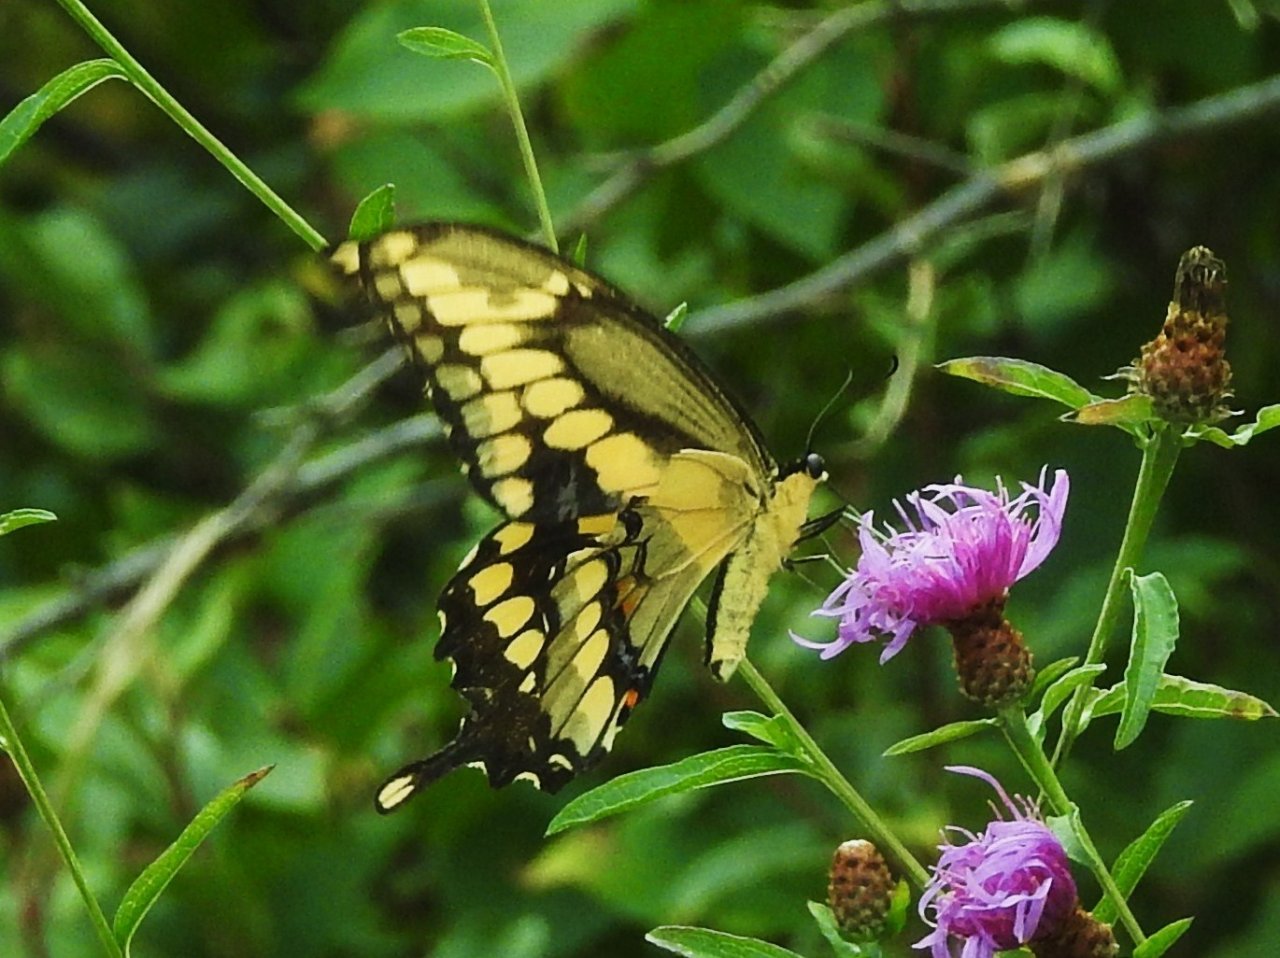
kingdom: Animalia
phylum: Arthropoda
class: Insecta
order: Lepidoptera
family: Papilionidae
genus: Papilio
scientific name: Papilio cresphontes
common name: Eastern Giant Swallowtail
